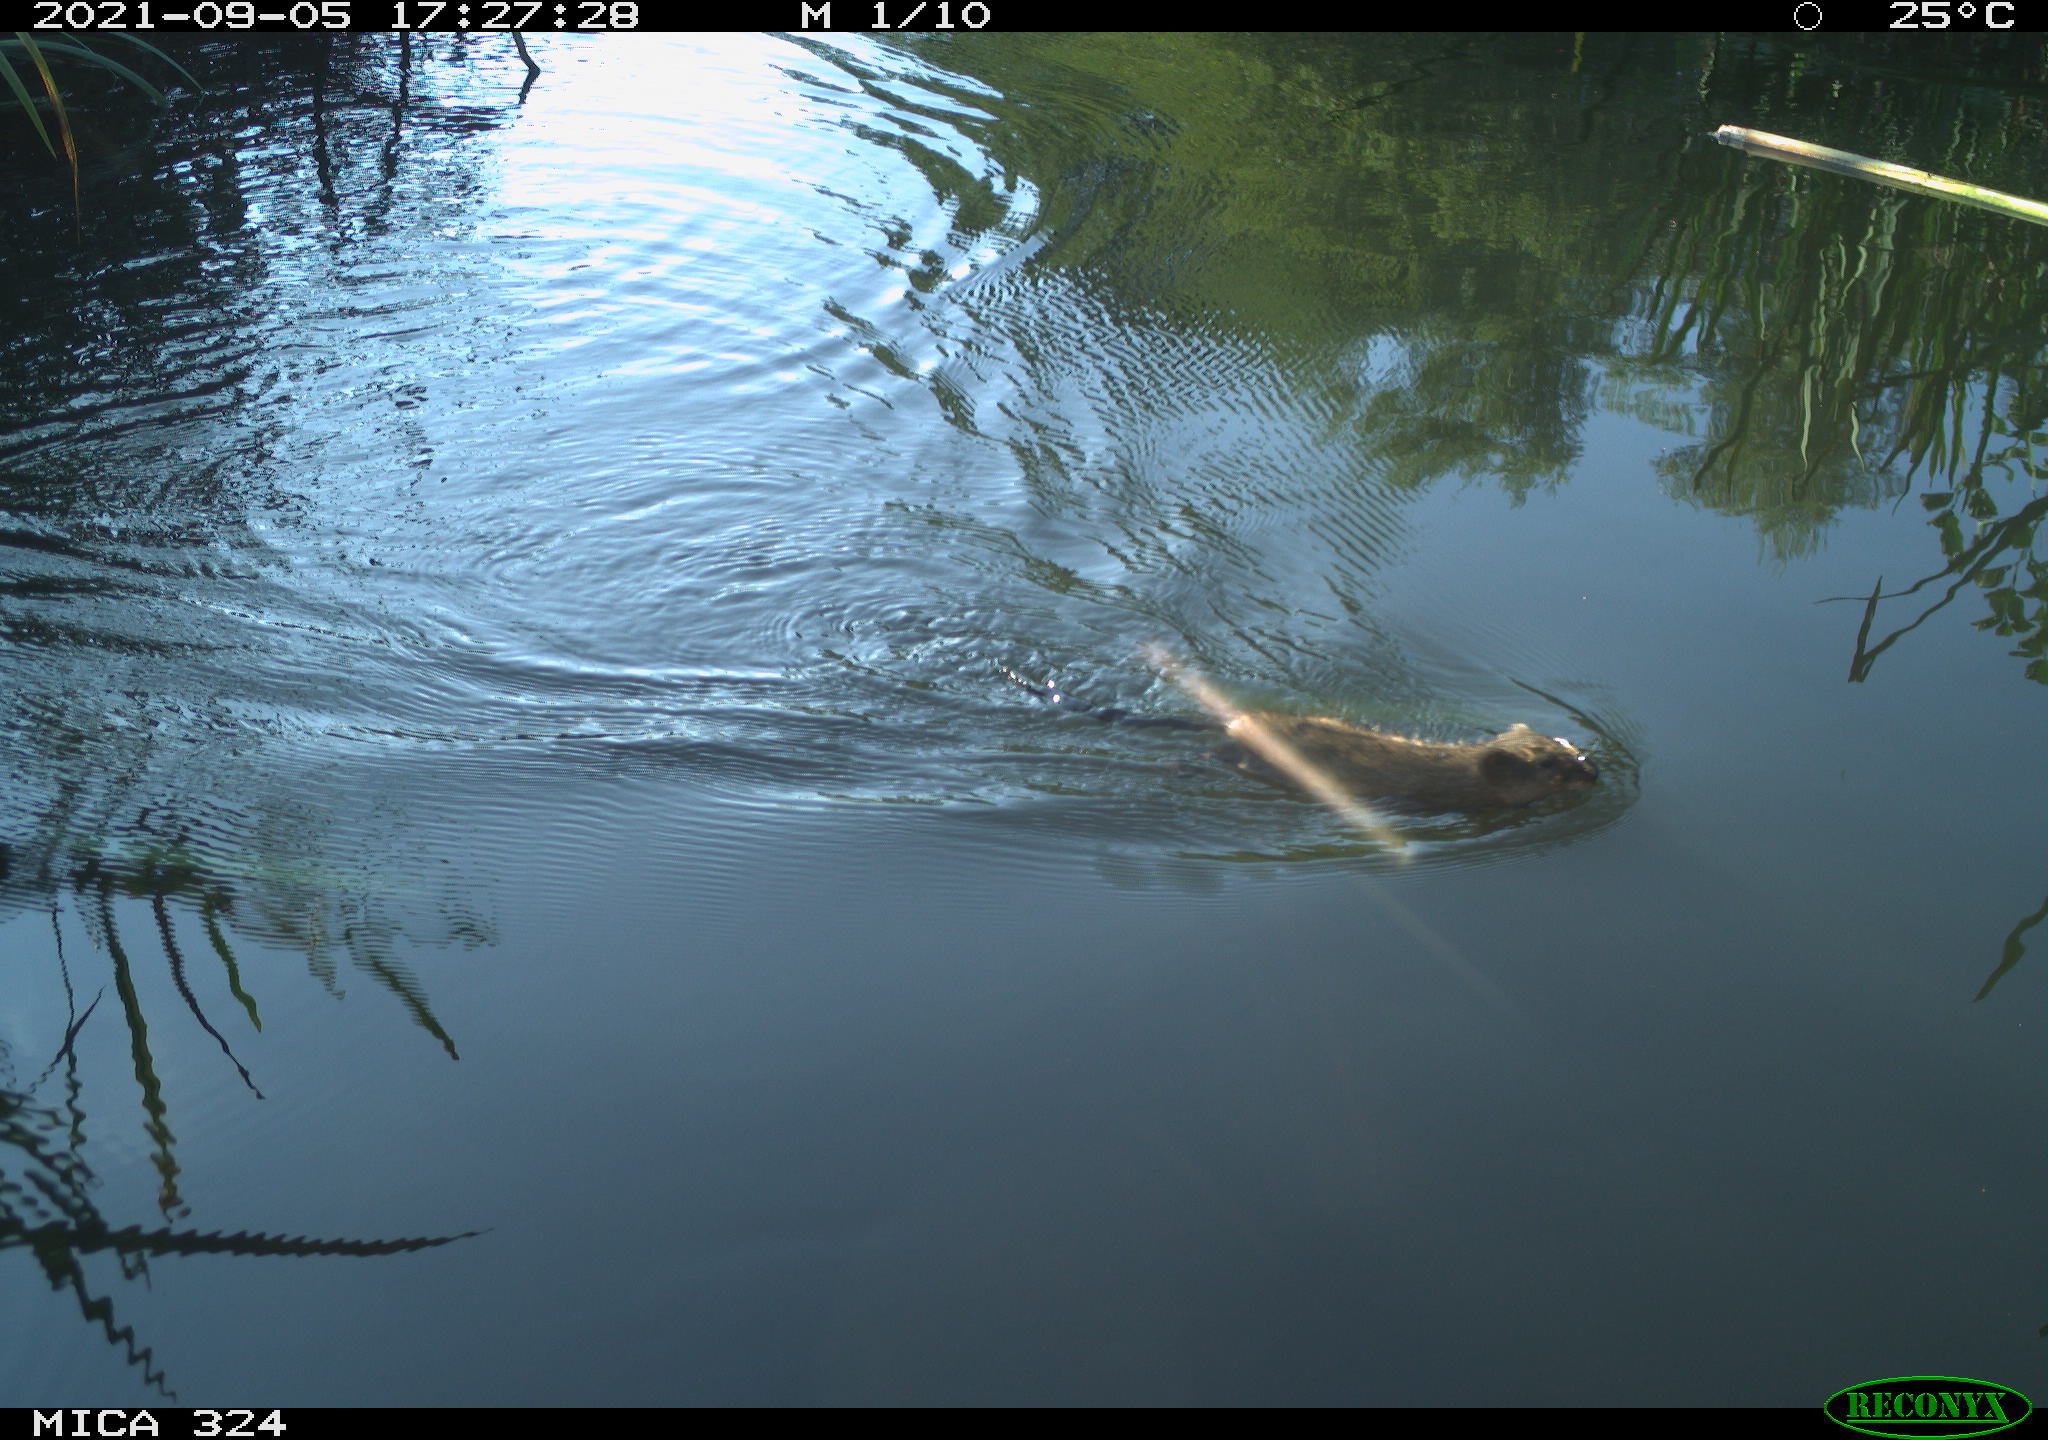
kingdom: Animalia
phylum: Chordata
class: Mammalia
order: Rodentia
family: Cricetidae
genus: Ondatra
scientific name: Ondatra zibethicus
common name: Muskrat
